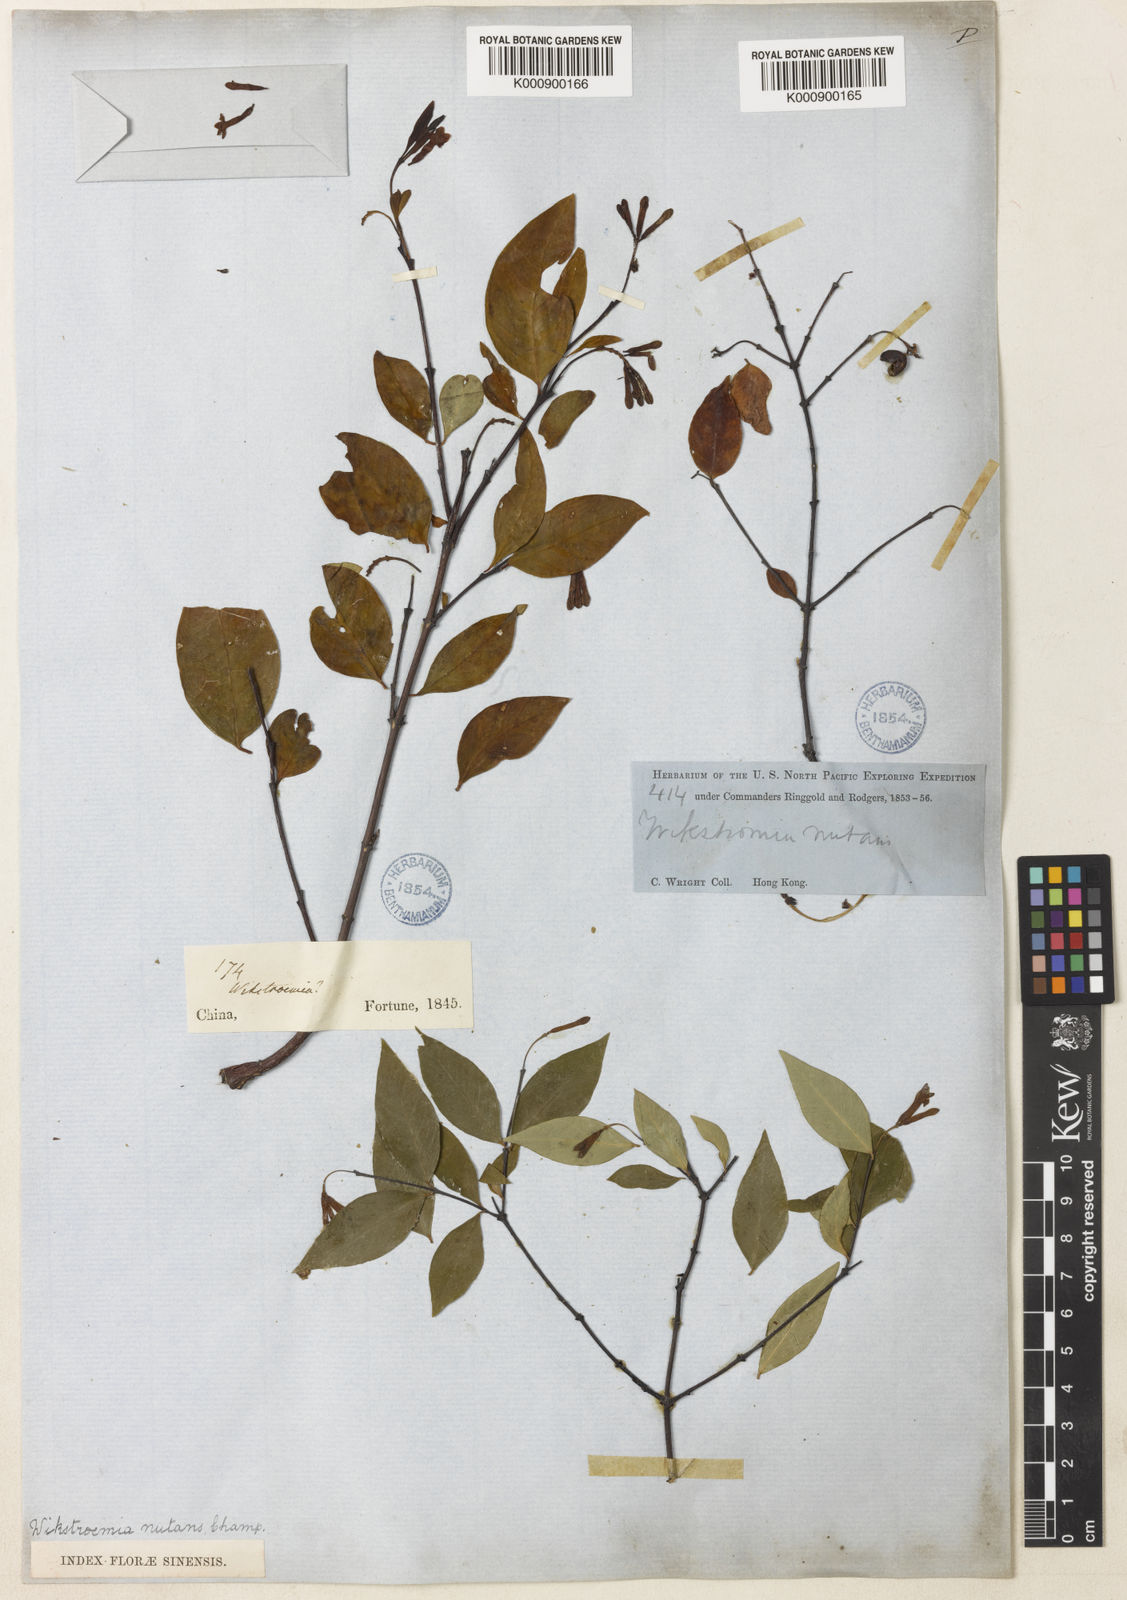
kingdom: Plantae
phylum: Tracheophyta
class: Magnoliopsida
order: Malvales
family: Thymelaeaceae
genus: Wikstroemia
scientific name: Wikstroemia nutans
